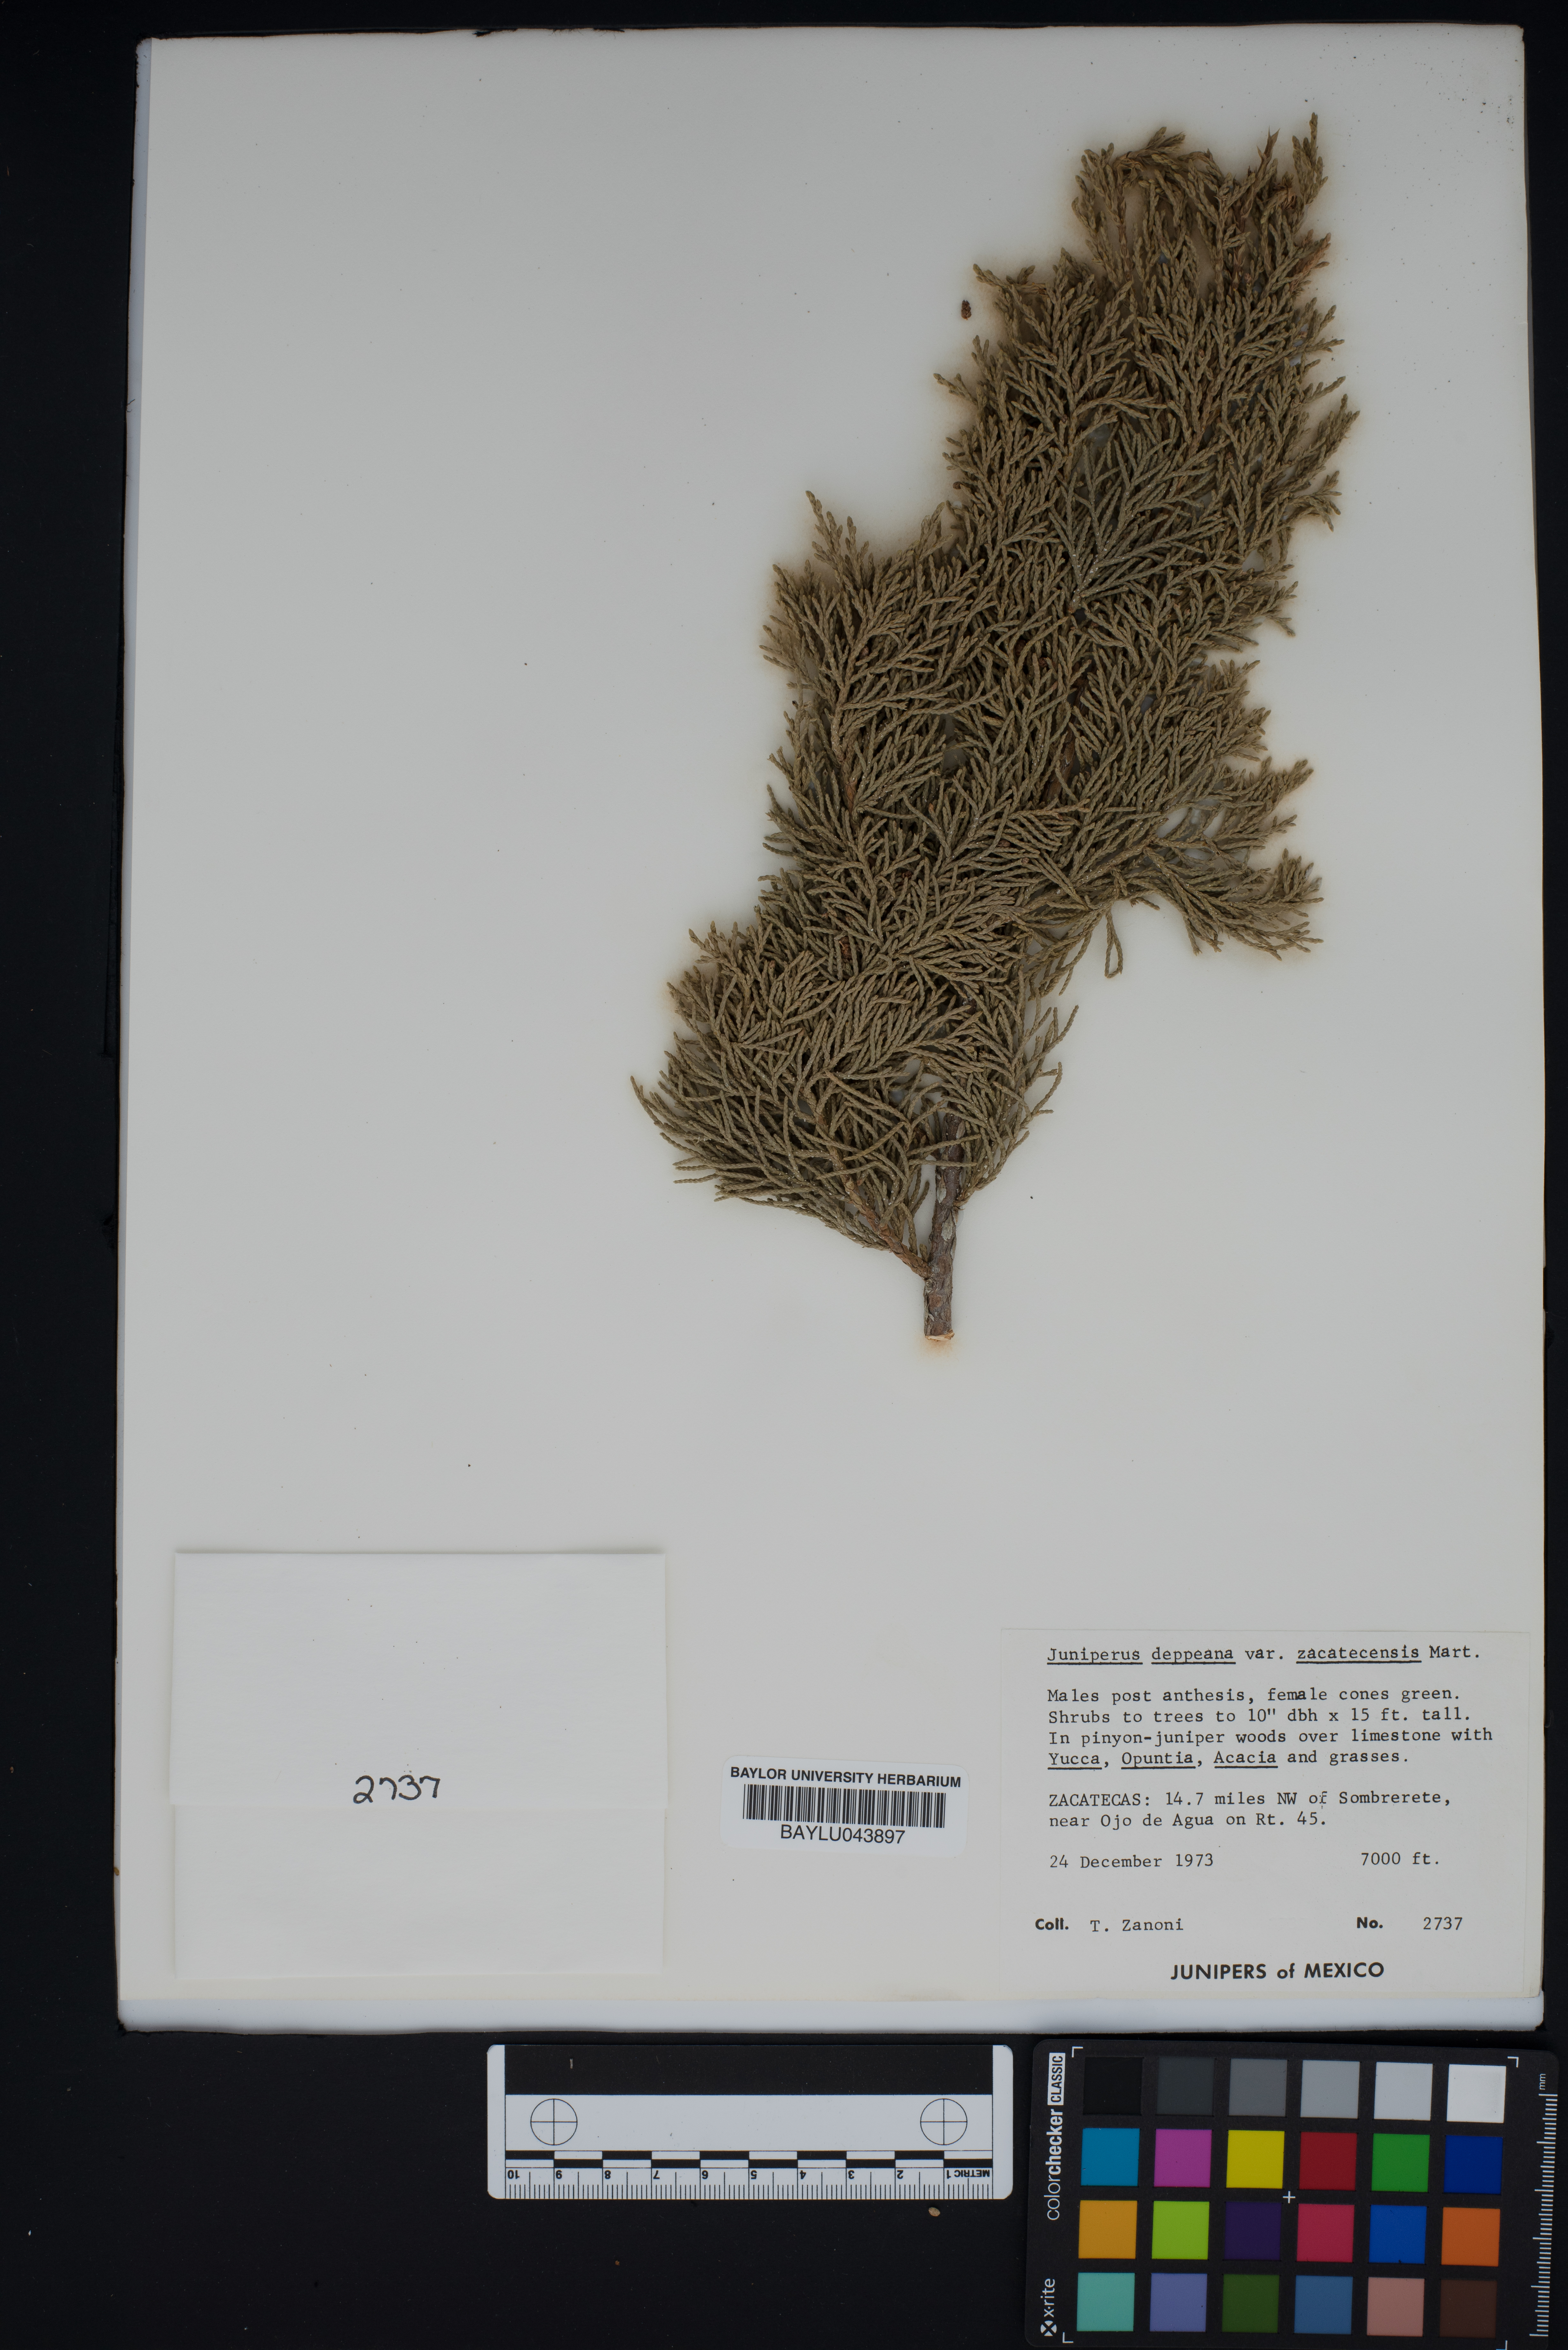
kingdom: Plantae
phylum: Tracheophyta
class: Pinopsida
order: Pinales
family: Cupressaceae
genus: Juniperus
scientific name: Juniperus deppeana
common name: Alligator juniper
